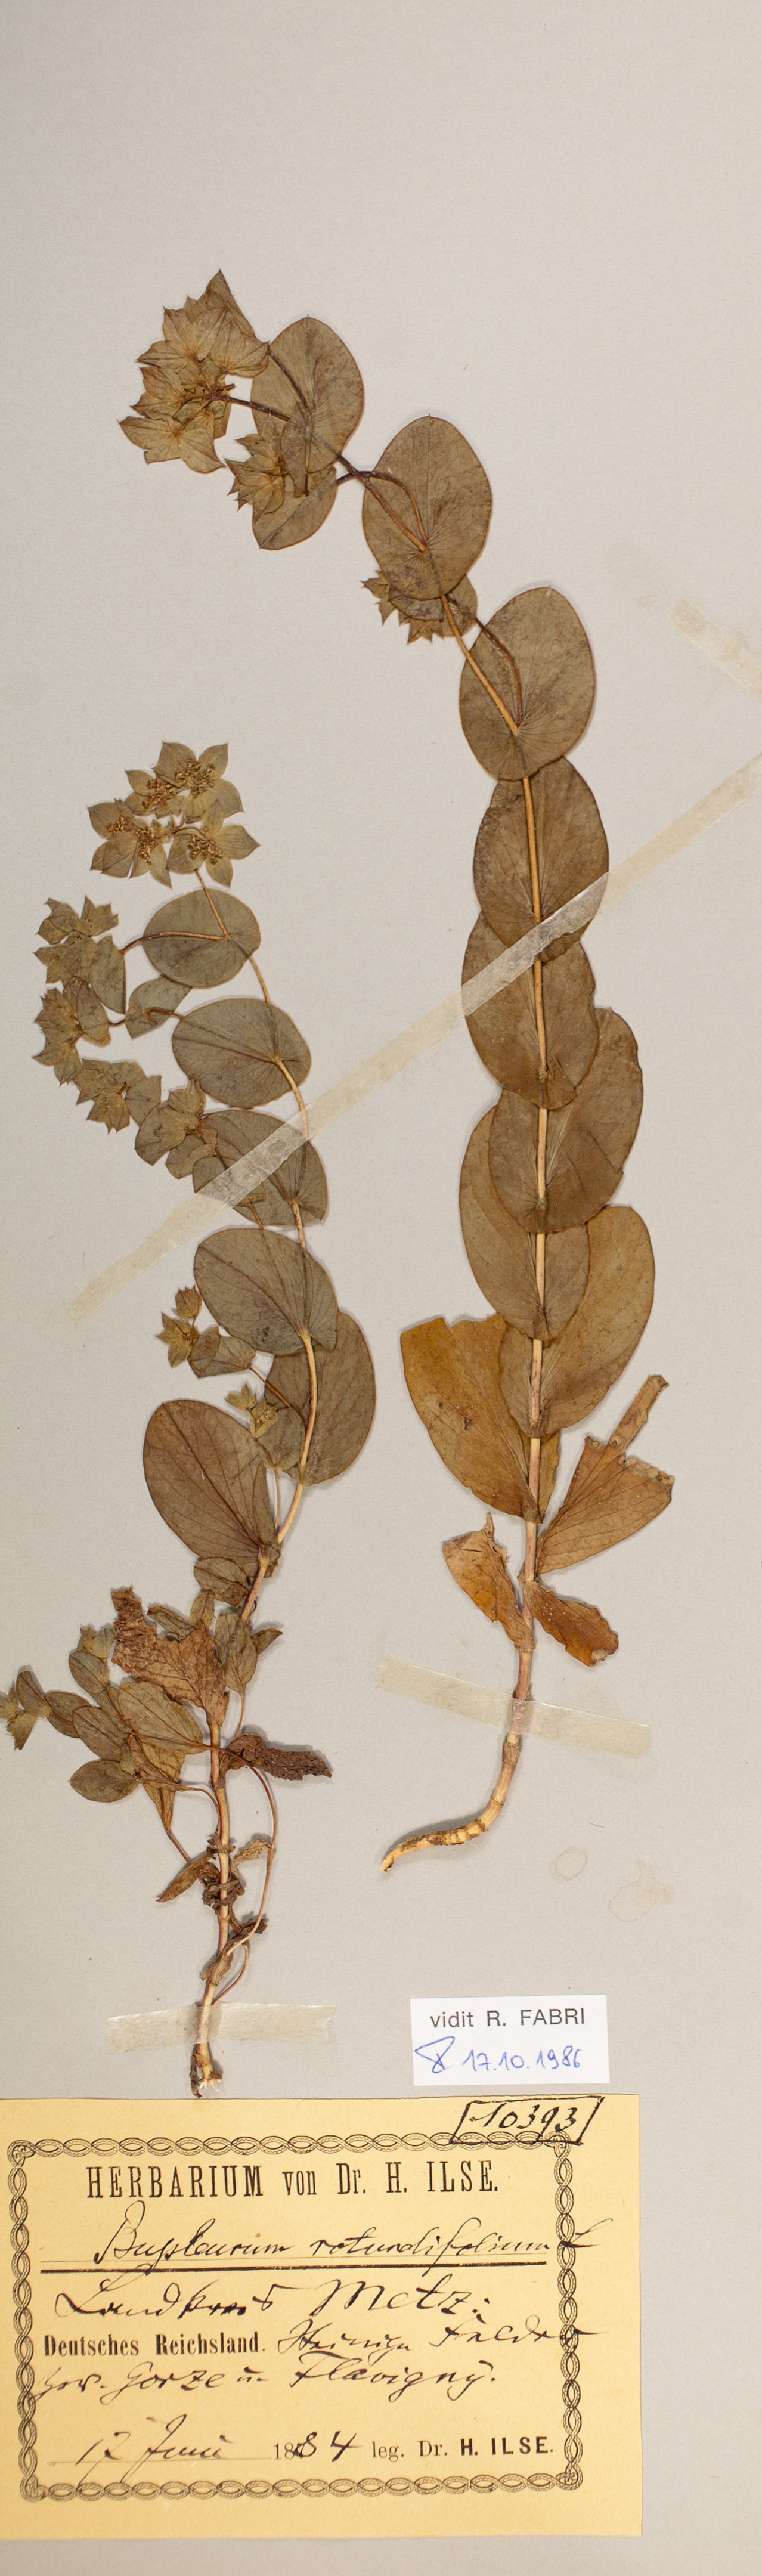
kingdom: Plantae
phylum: Tracheophyta
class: Magnoliopsida
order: Apiales
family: Apiaceae
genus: Bupleurum
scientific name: Bupleurum rotundifolium
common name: Thorow-wax
